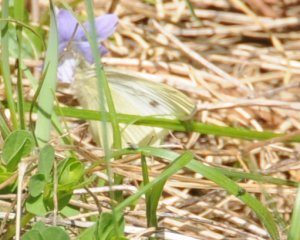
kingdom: Animalia
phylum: Arthropoda
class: Insecta
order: Lepidoptera
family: Pieridae
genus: Pieris
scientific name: Pieris rapae
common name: Cabbage White
